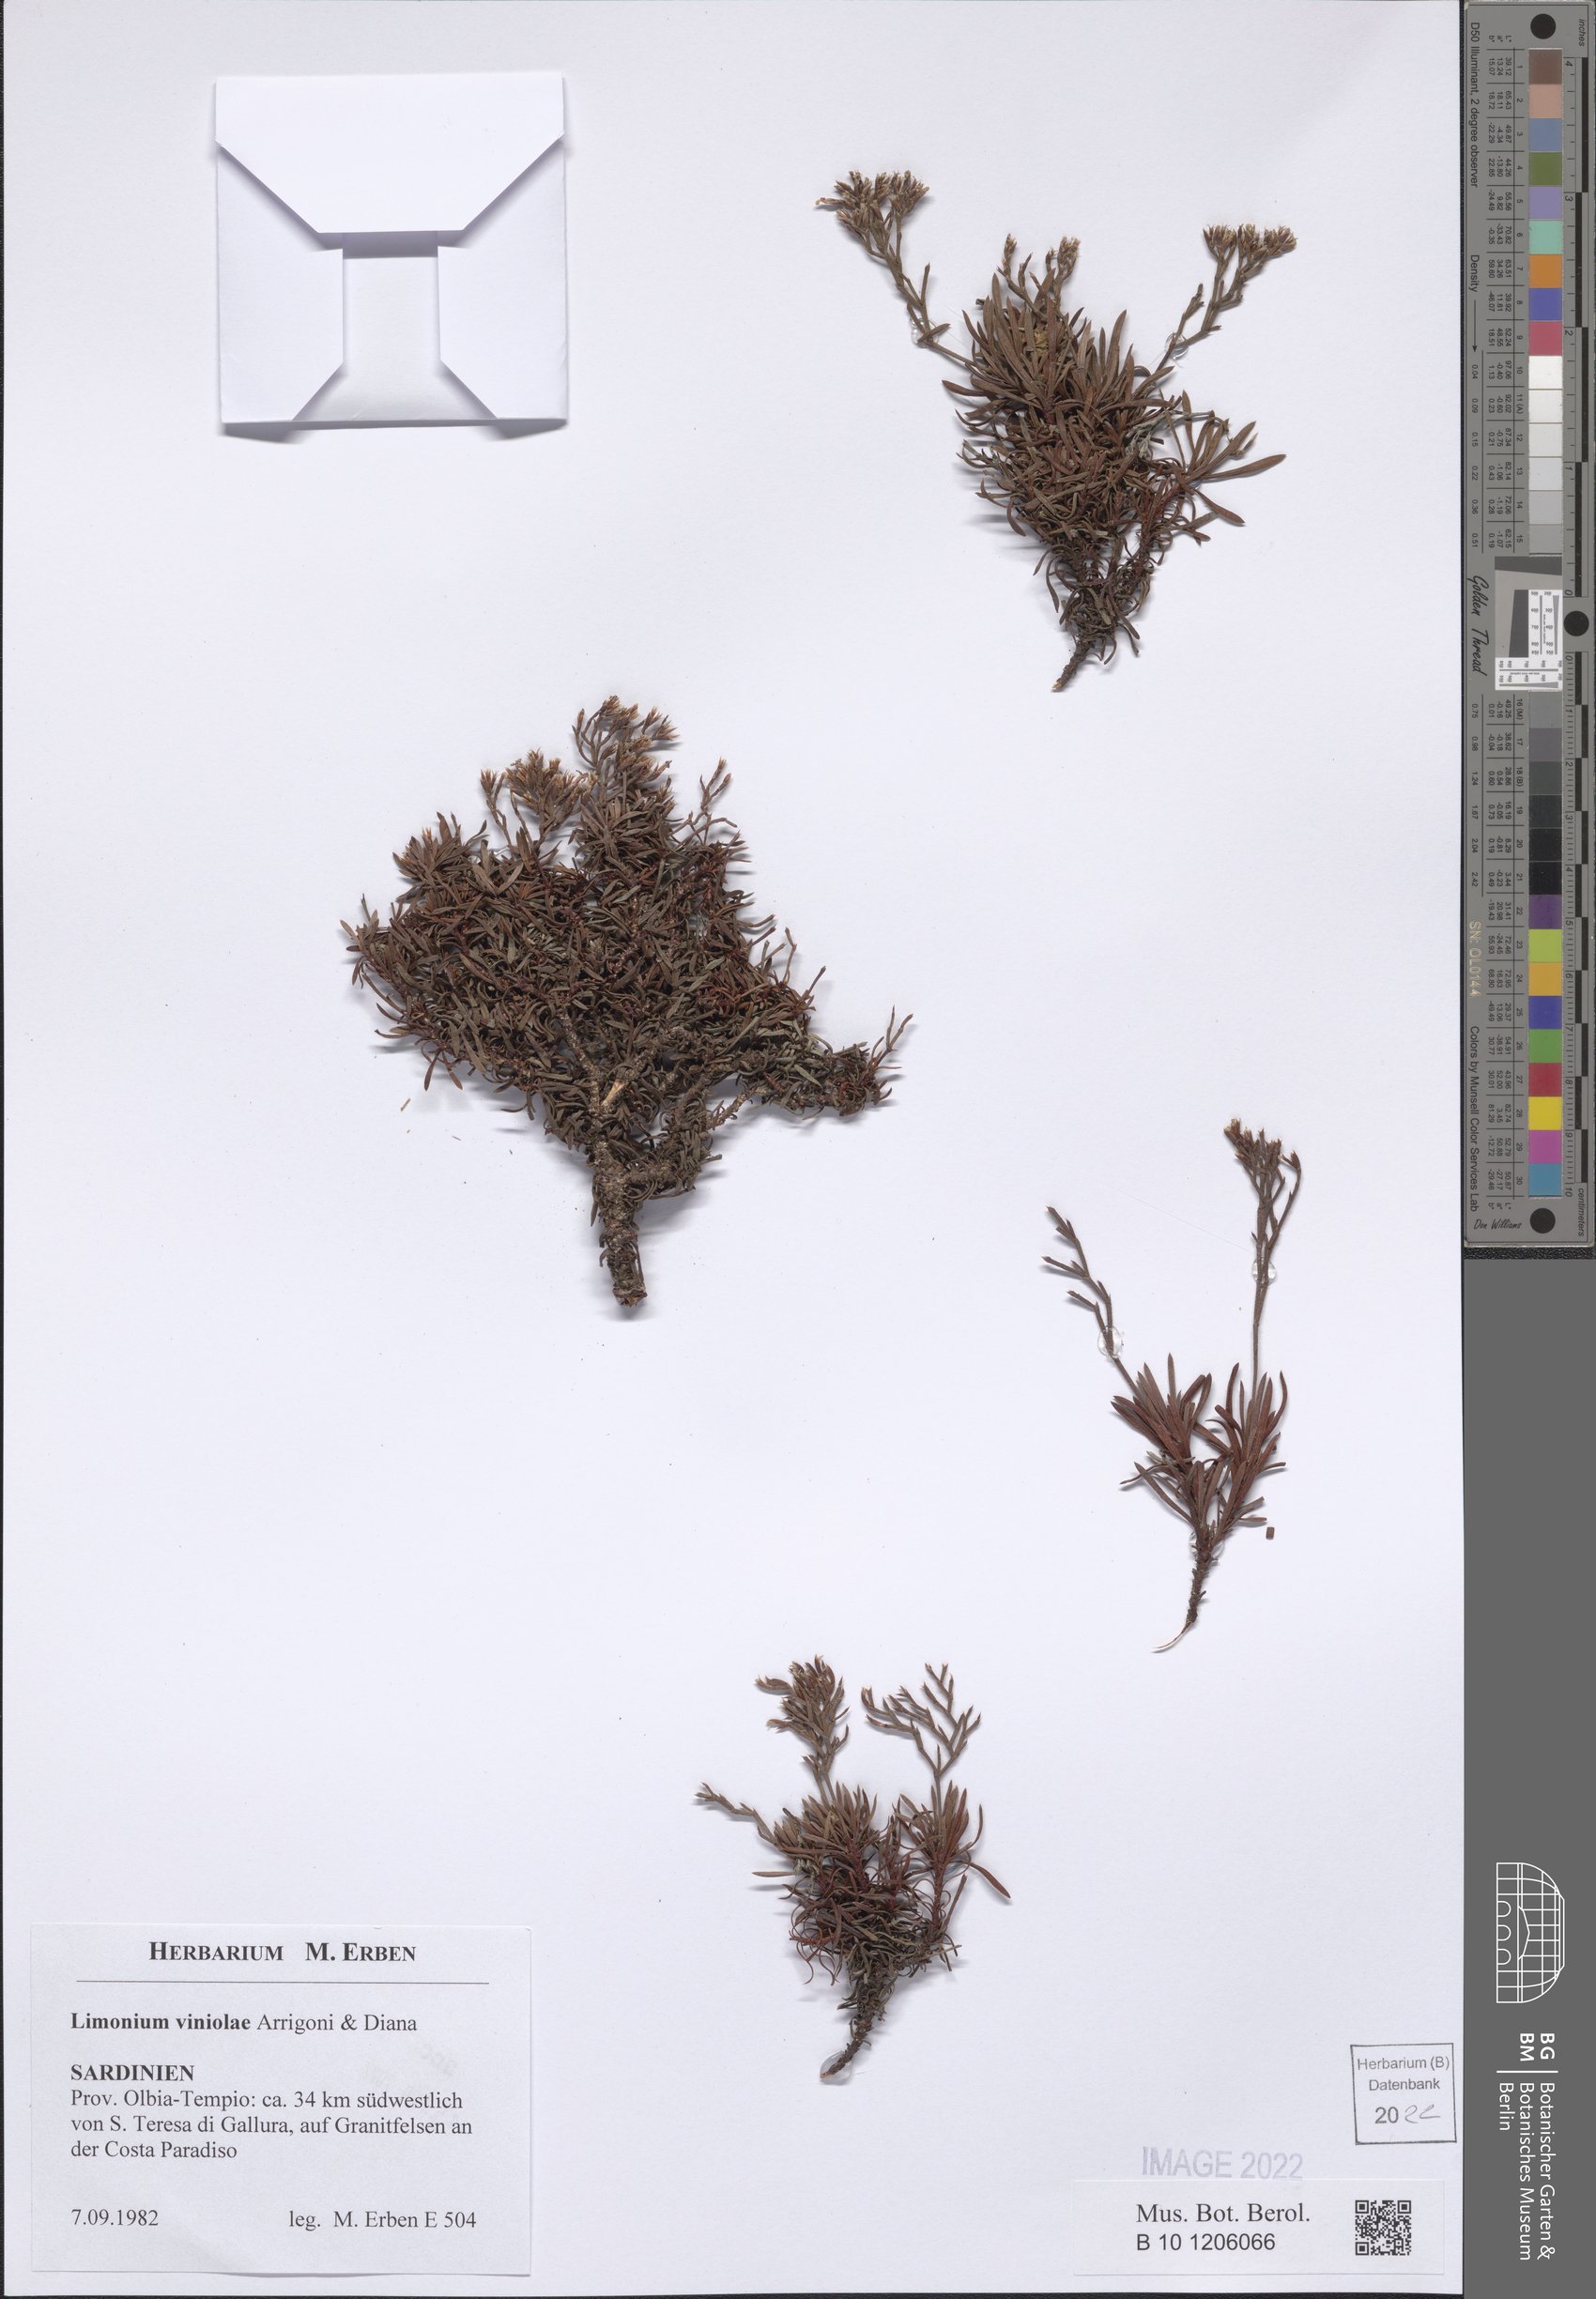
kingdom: Plantae
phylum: Tracheophyta
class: Magnoliopsida
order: Caryophyllales
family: Plumbaginaceae
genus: Limonium
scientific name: Limonium viniolae
